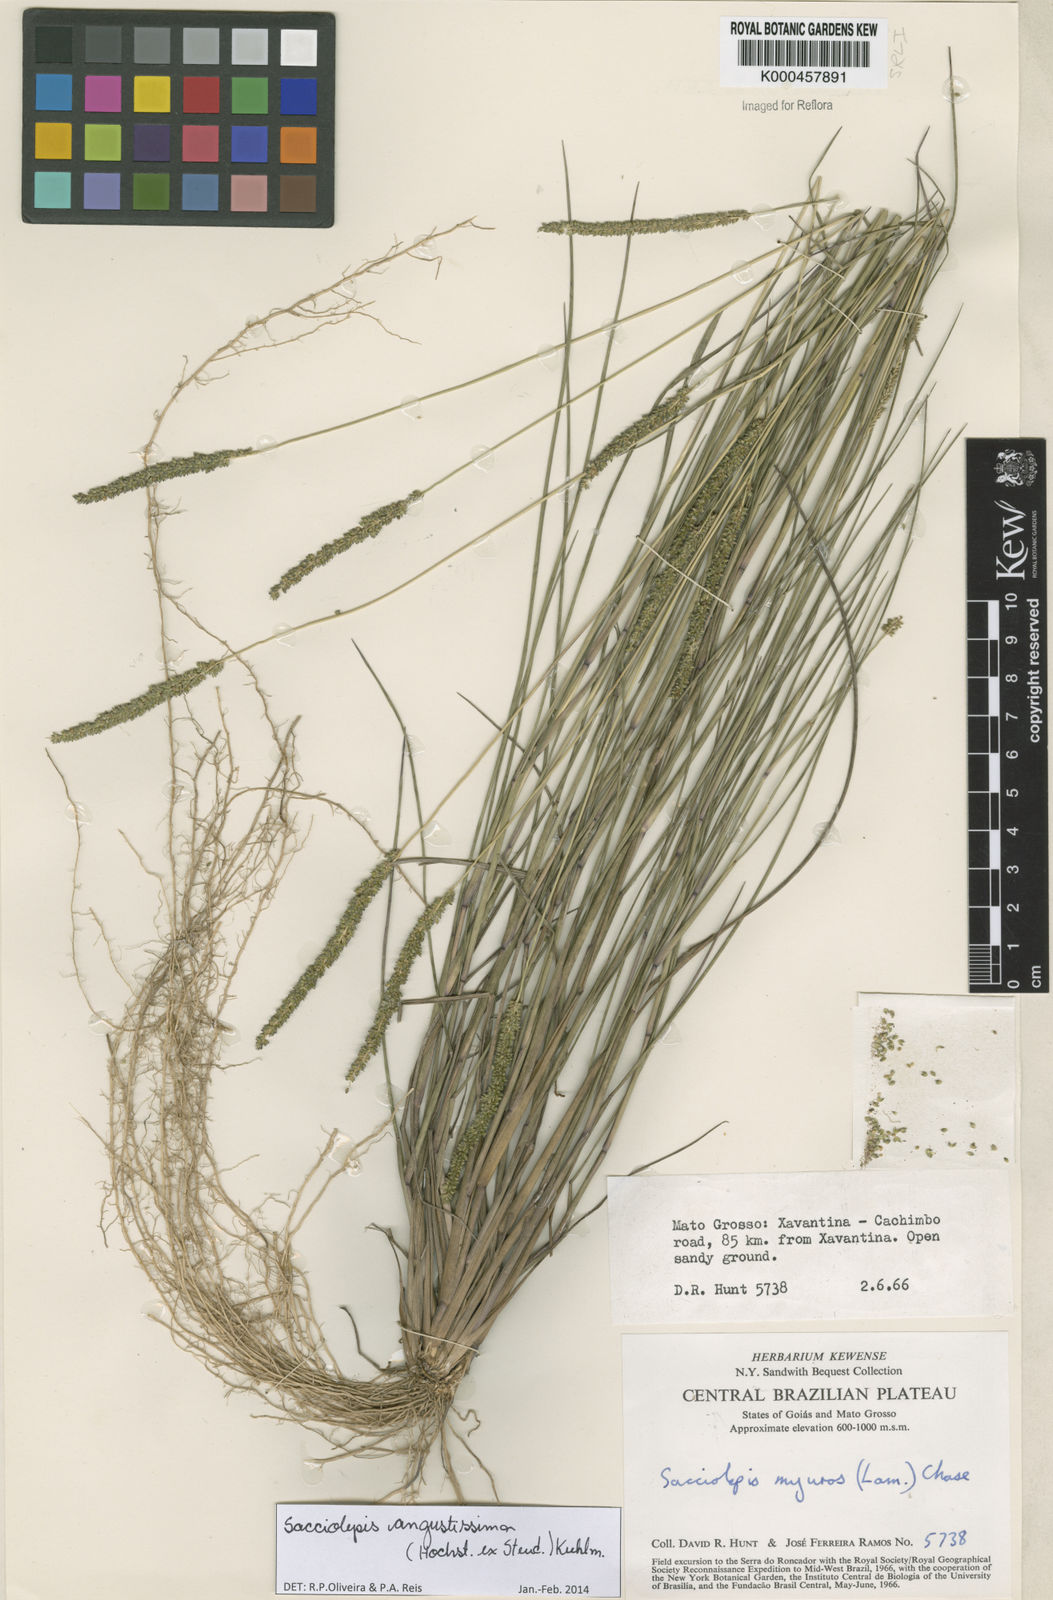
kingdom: Plantae
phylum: Tracheophyta
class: Liliopsida
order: Poales
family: Poaceae
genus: Sacciolepis
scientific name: Sacciolepis angustissima
